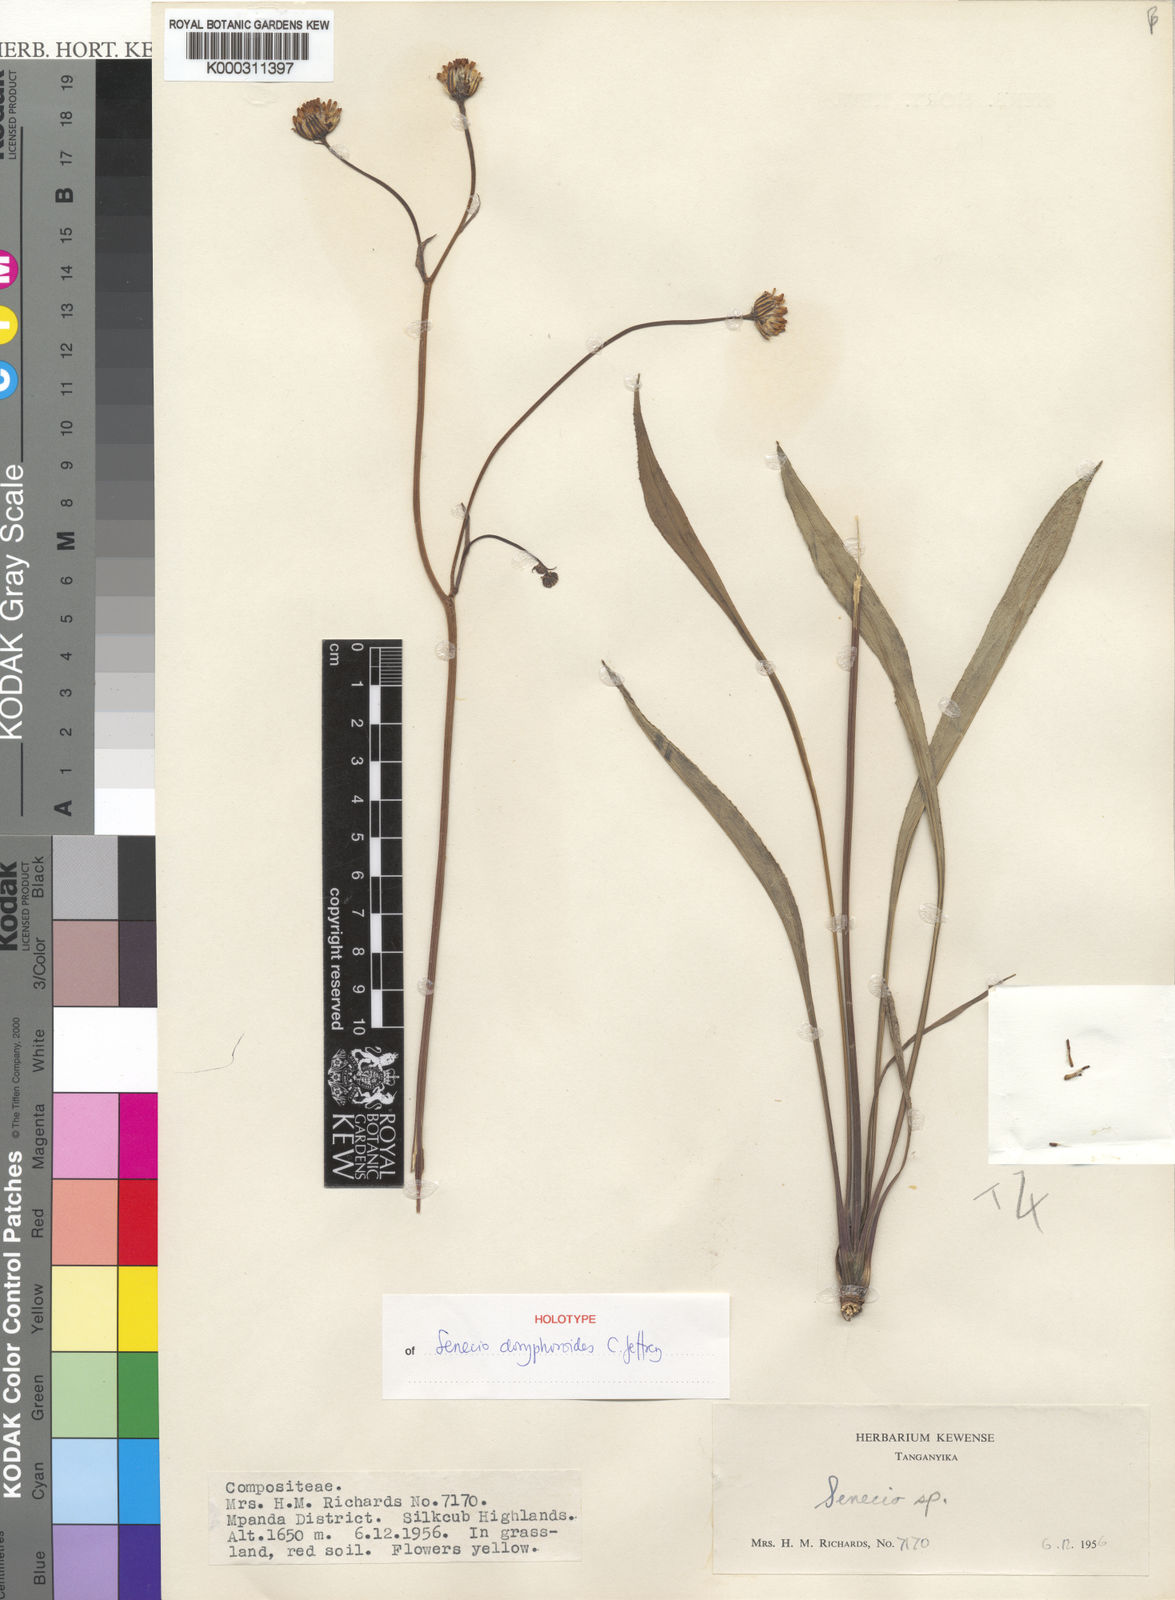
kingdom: Plantae
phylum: Tracheophyta
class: Magnoliopsida
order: Asterales
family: Asteraceae
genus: Senecio
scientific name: Senecio doryphoroides
